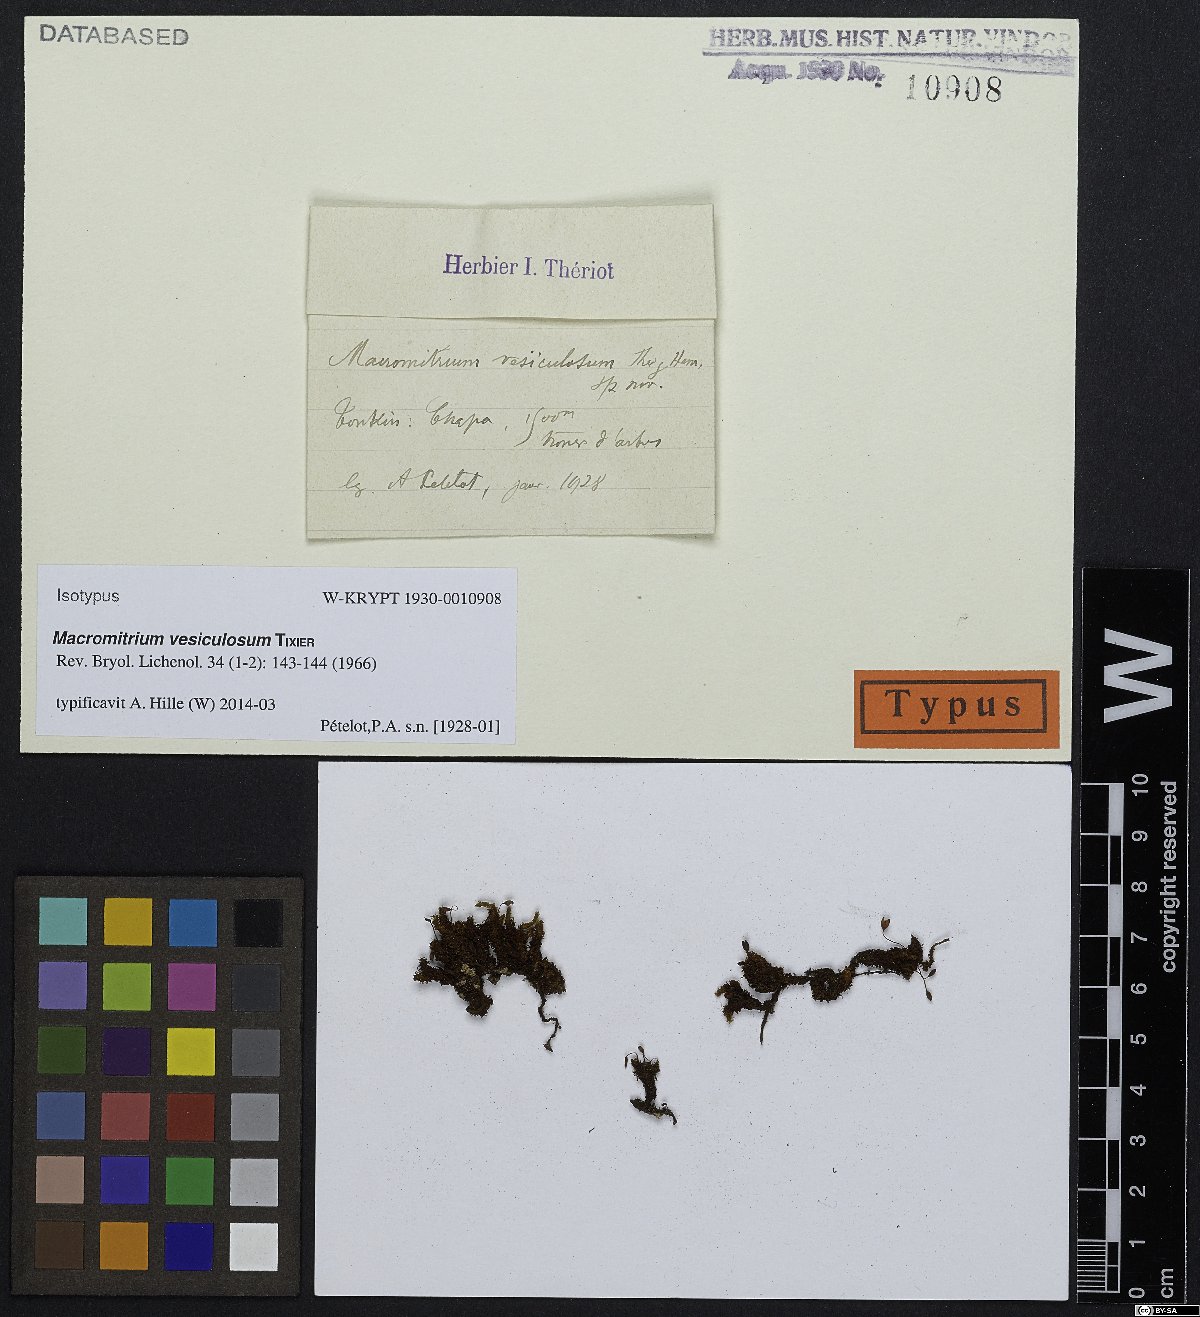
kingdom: Plantae
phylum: Bryophyta
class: Bryopsida
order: Orthotrichales
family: Orthotrichaceae
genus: Macromitrium
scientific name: Macromitrium vesiculosum
